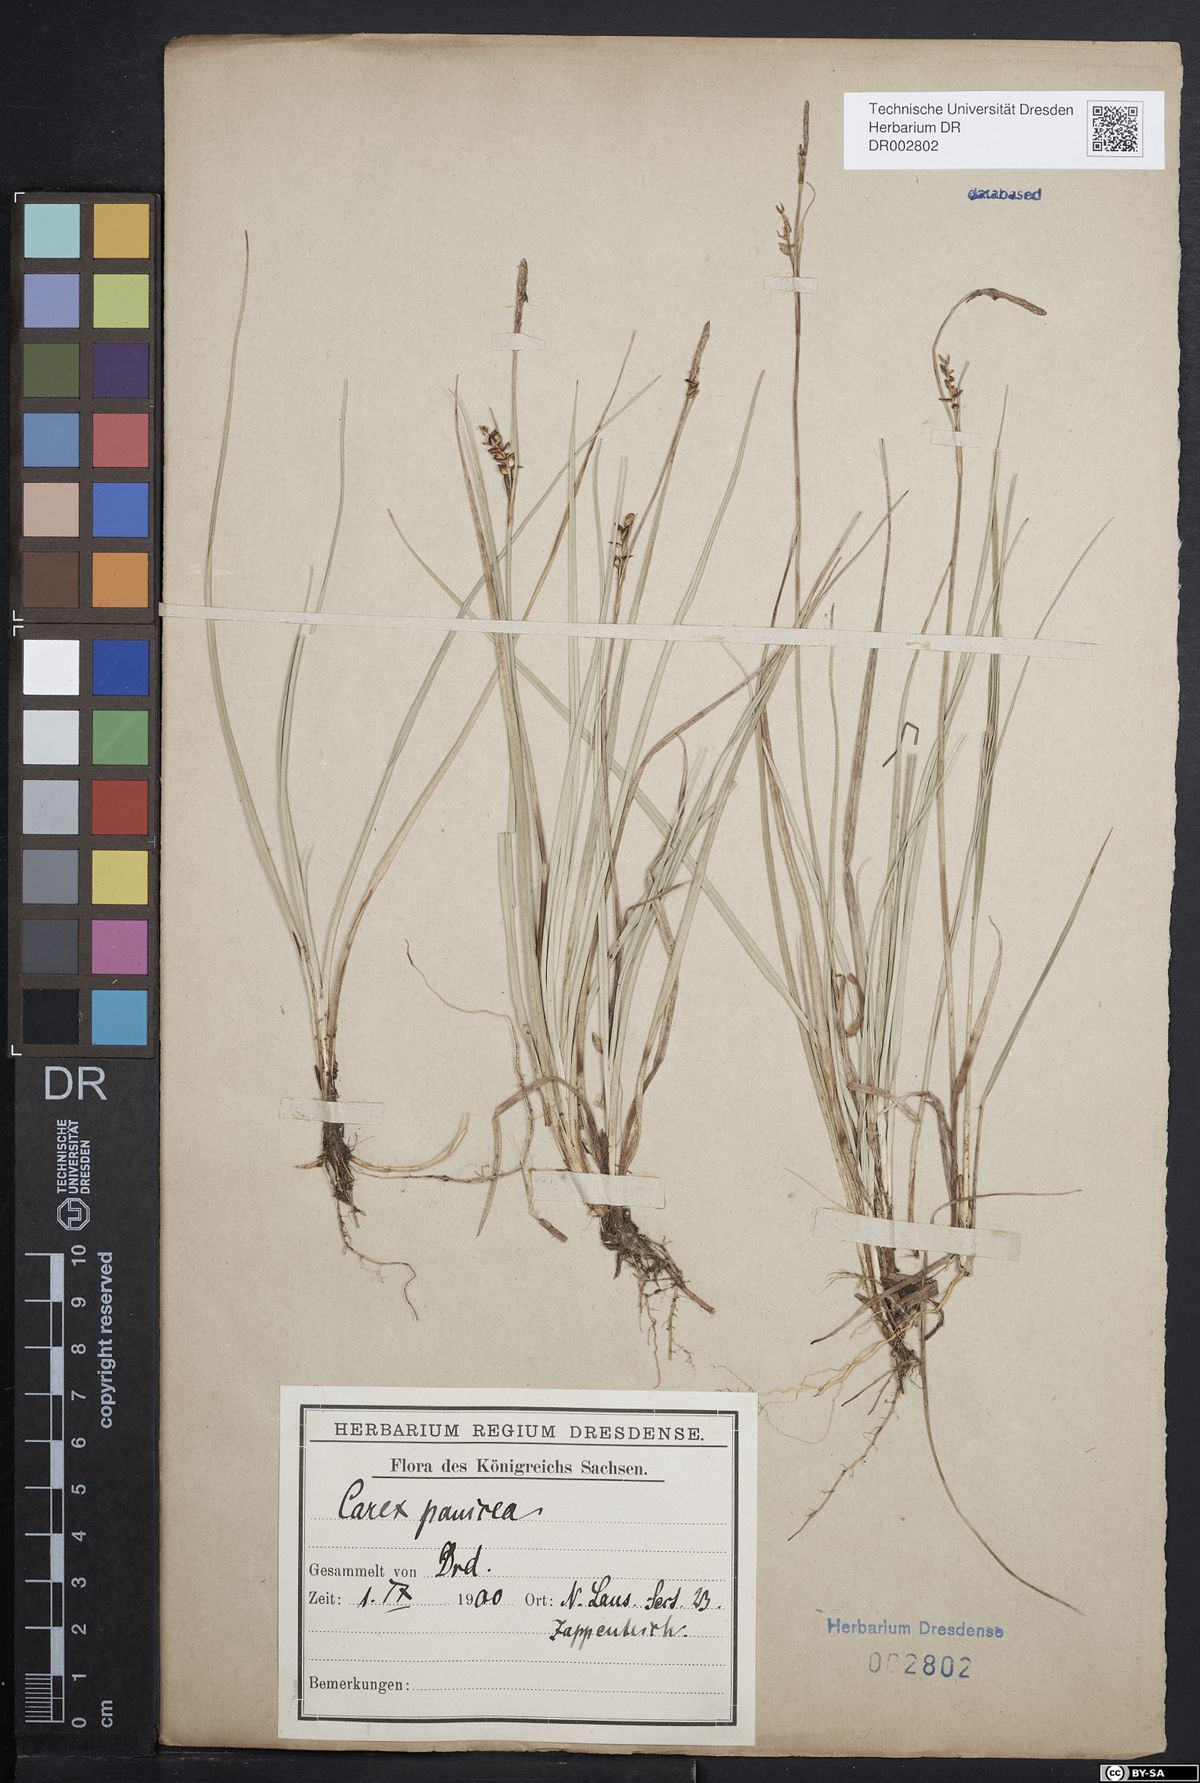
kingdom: Plantae
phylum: Tracheophyta
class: Liliopsida
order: Poales
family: Cyperaceae
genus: Carex
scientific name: Carex panicea
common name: Carnation sedge
